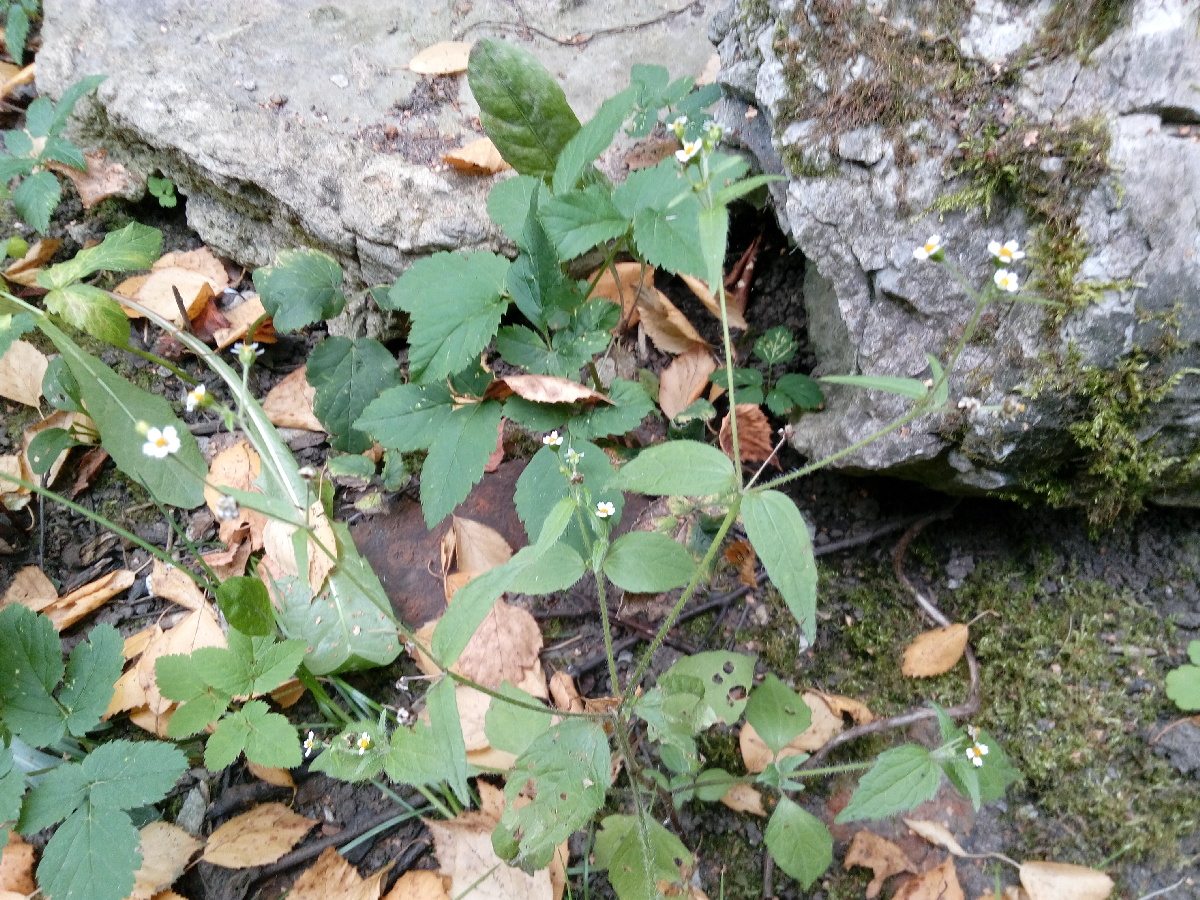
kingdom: Plantae
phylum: Tracheophyta
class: Magnoliopsida
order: Asterales
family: Asteraceae
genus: Galinsoga
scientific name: Galinsoga quadriradiata
